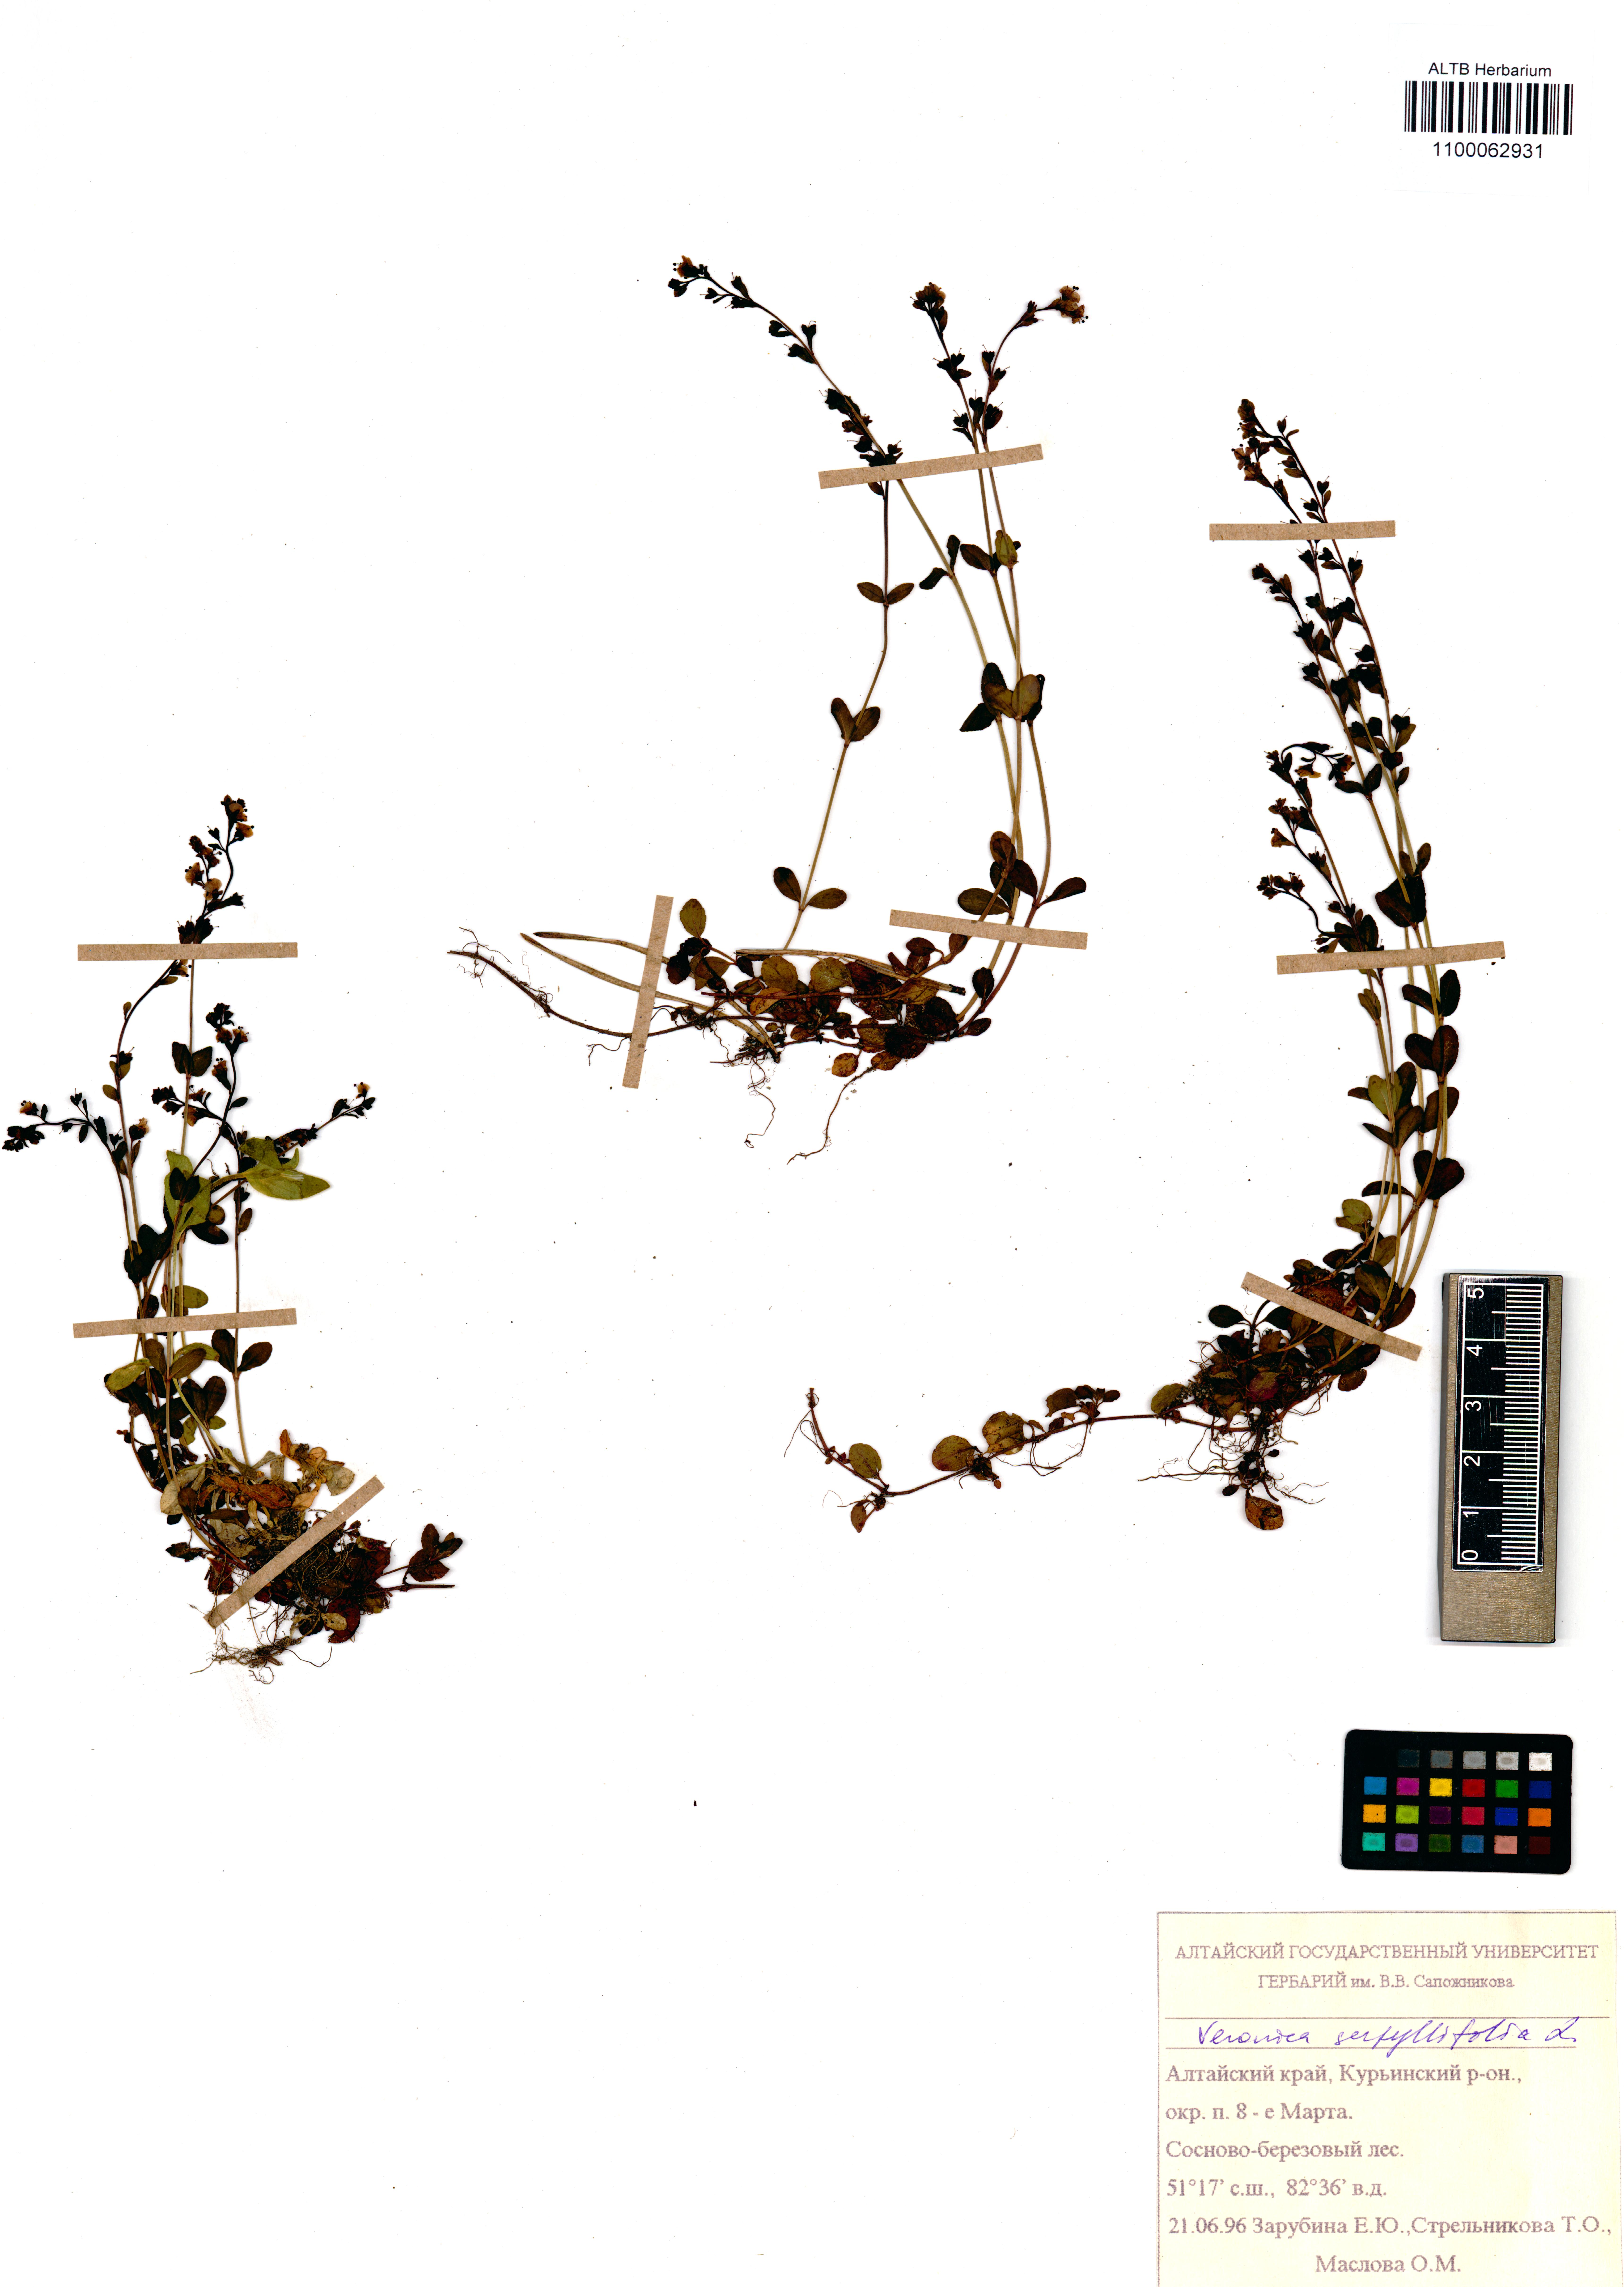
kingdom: Plantae
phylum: Tracheophyta
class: Magnoliopsida
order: Lamiales
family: Plantaginaceae
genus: Veronica
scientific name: Veronica serpyllifolia
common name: Thyme-leaved speedwell
